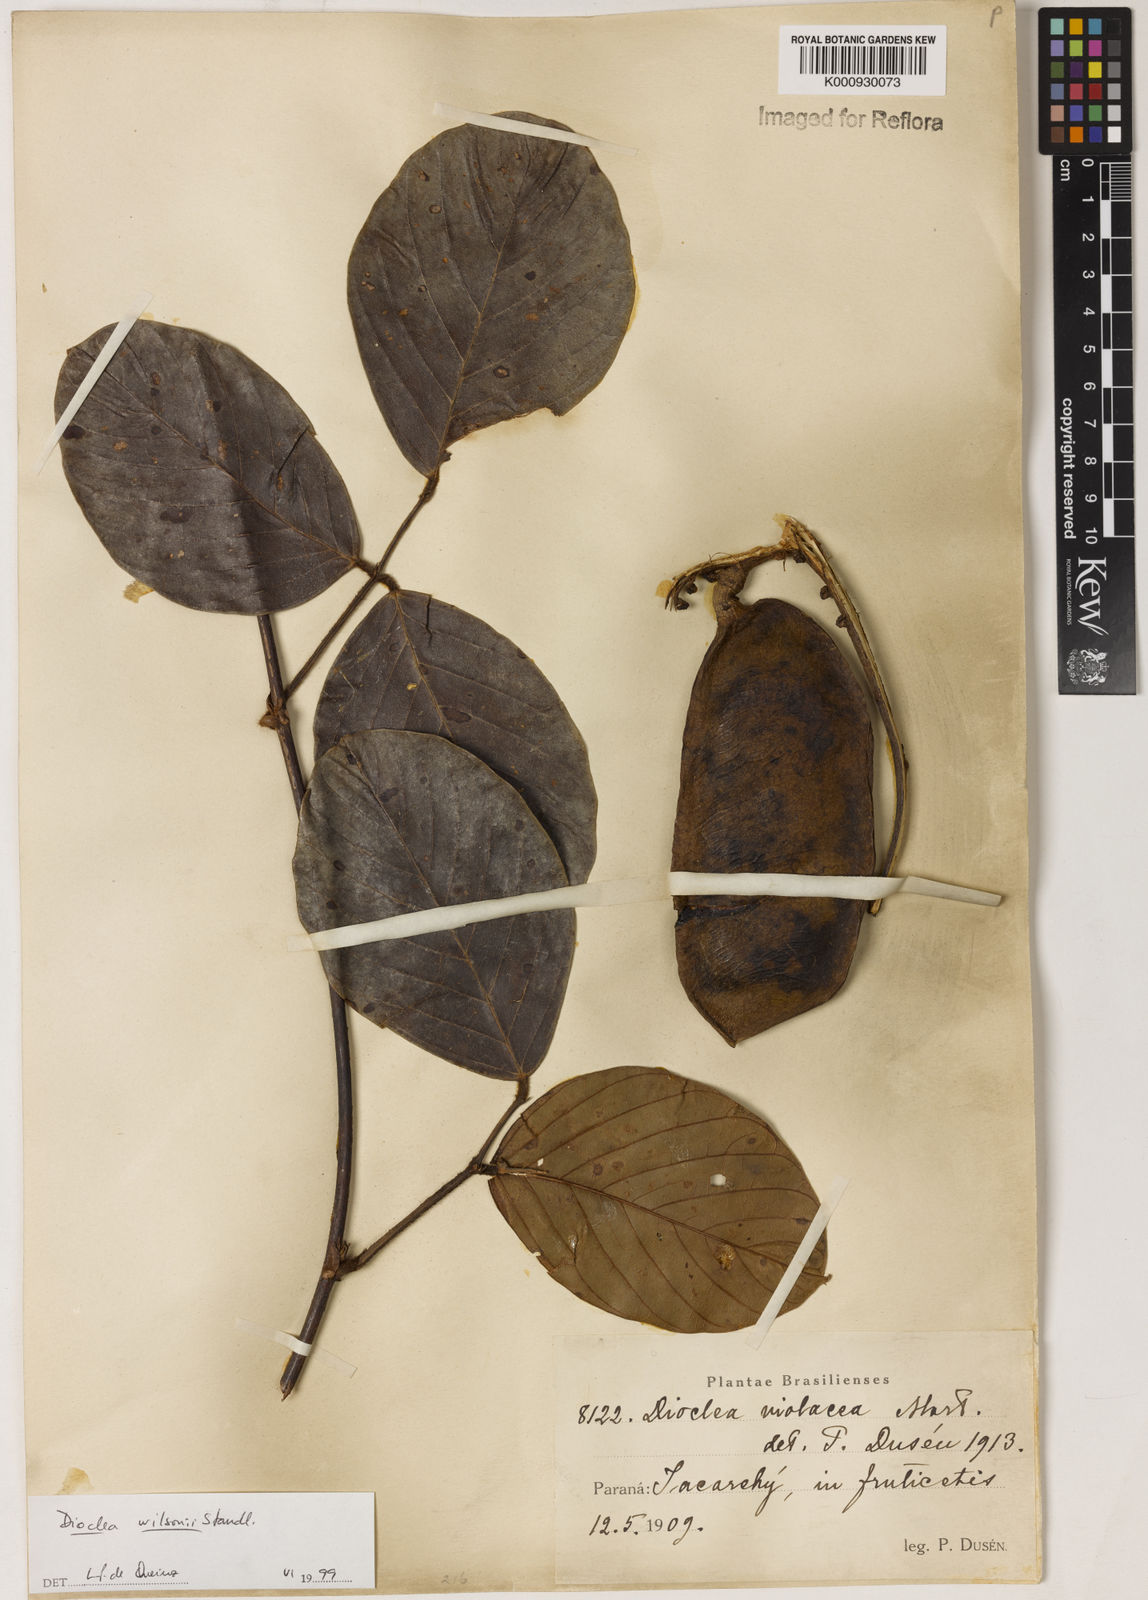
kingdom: Plantae
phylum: Tracheophyta
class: Magnoliopsida
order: Fabales
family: Fabaceae
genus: Macropsychanthus
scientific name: Macropsychanthus wilsonii
